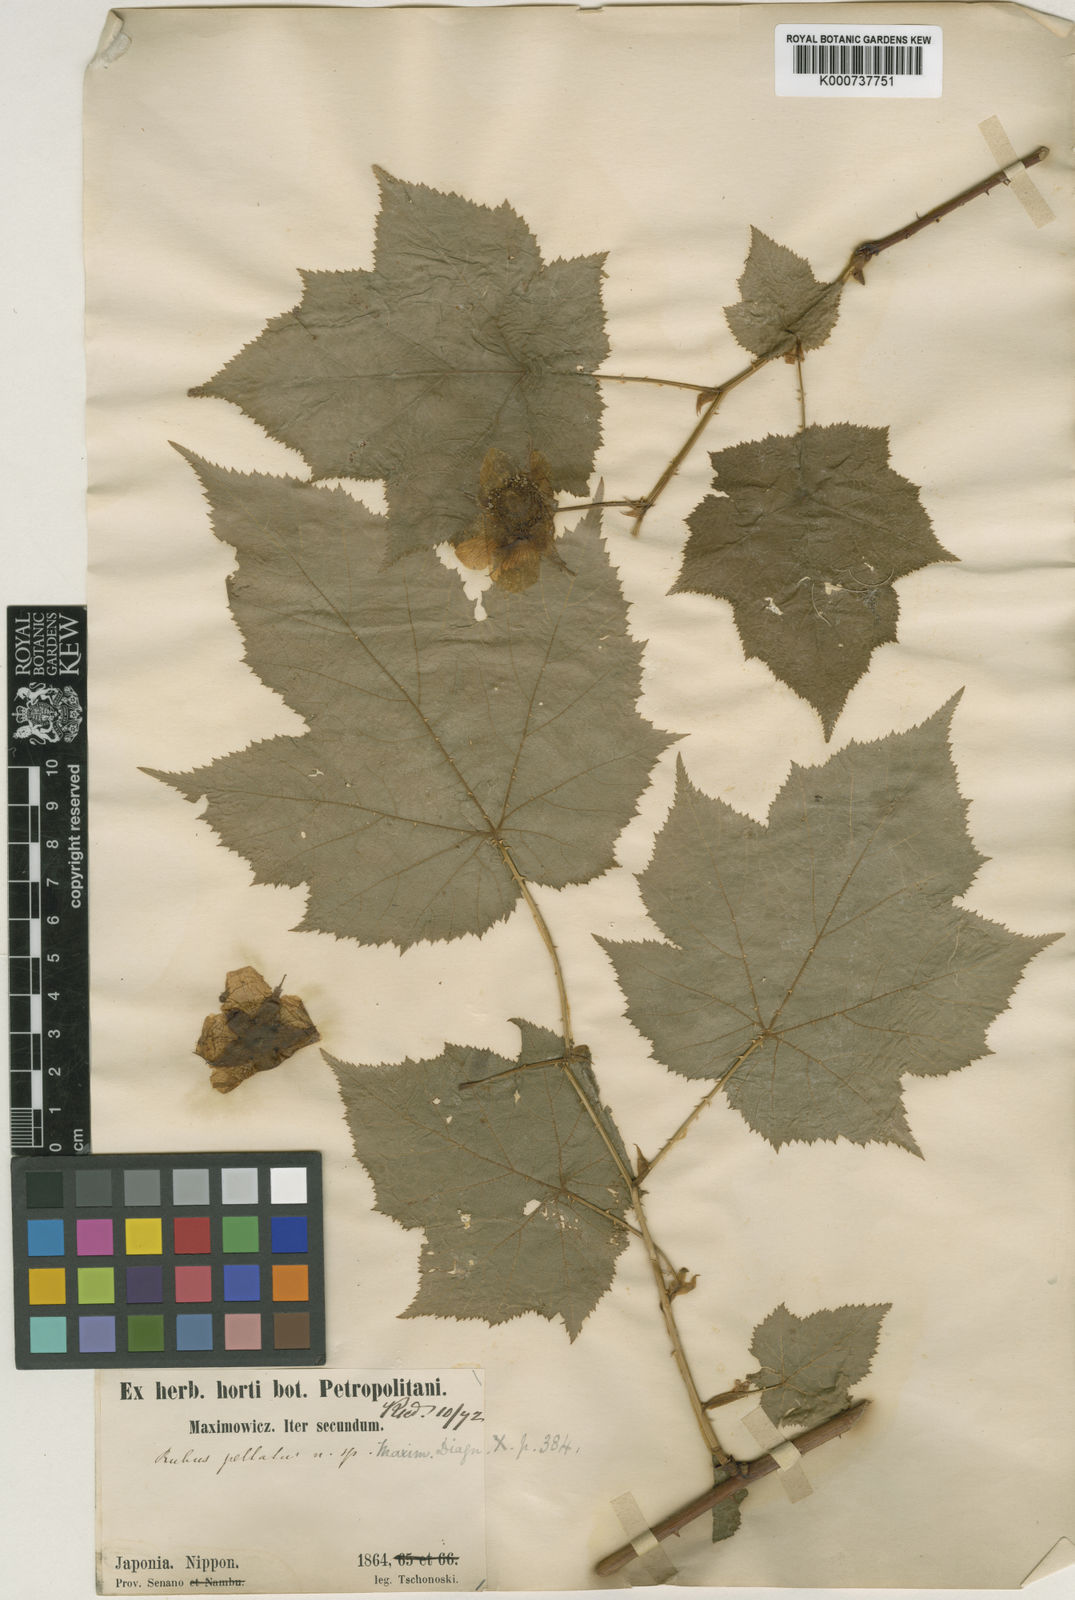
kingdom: Plantae
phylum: Tracheophyta
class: Magnoliopsida
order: Rosales
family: Rosaceae
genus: Rubus
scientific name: Rubus peltatus
